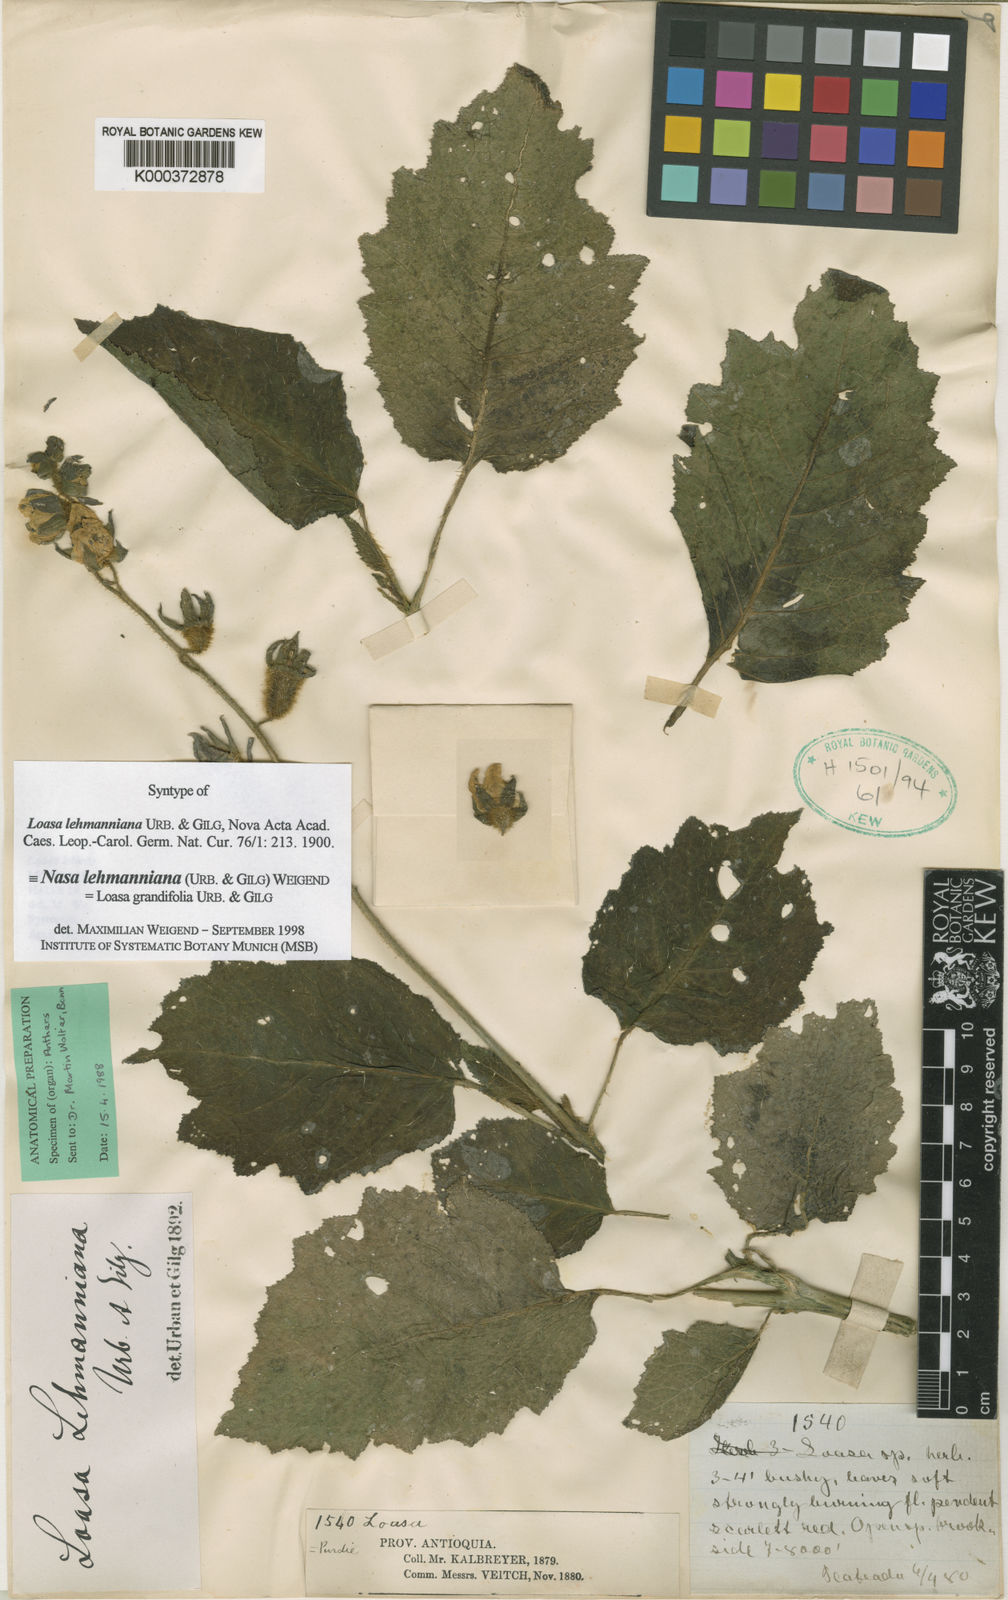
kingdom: Plantae
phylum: Tracheophyta
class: Magnoliopsida
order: Cornales
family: Loasaceae
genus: Nasa
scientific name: Nasa lehmanniana
